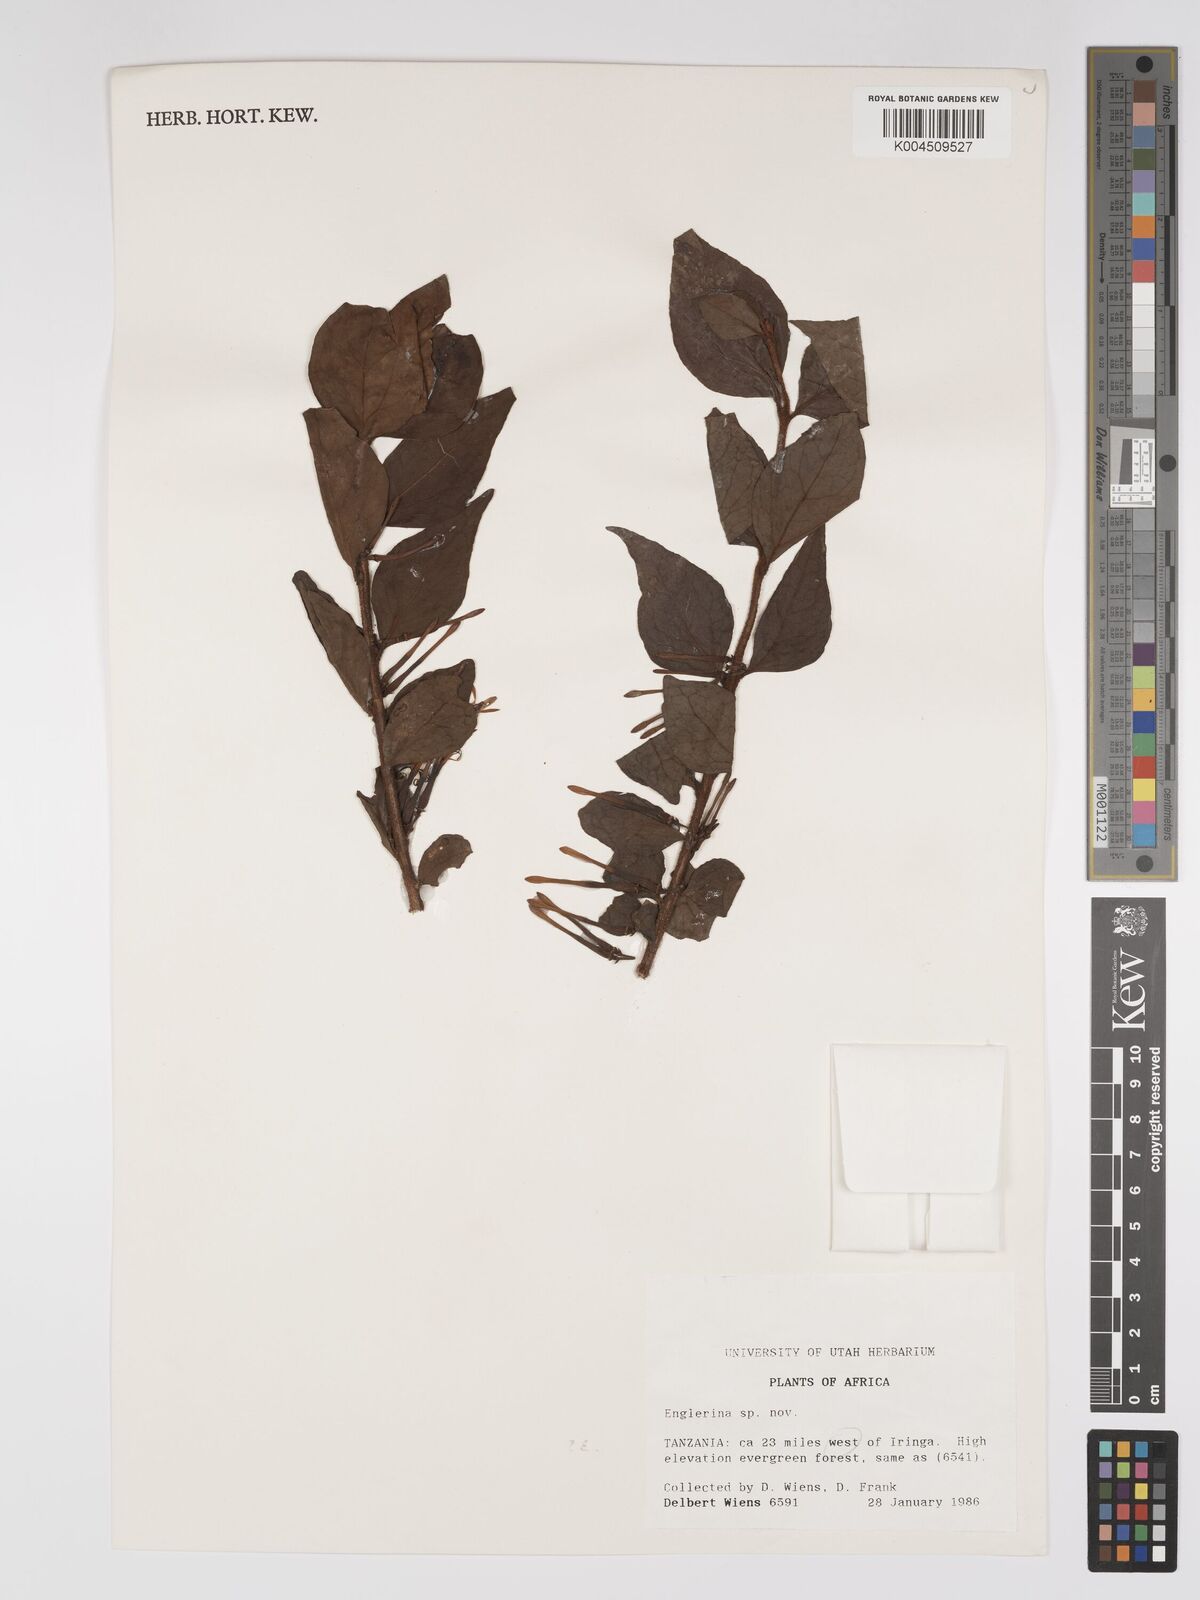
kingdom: Plantae
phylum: Tracheophyta
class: Magnoliopsida
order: Santalales
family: Loranthaceae
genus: Englerina
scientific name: Englerina inaequilatera
